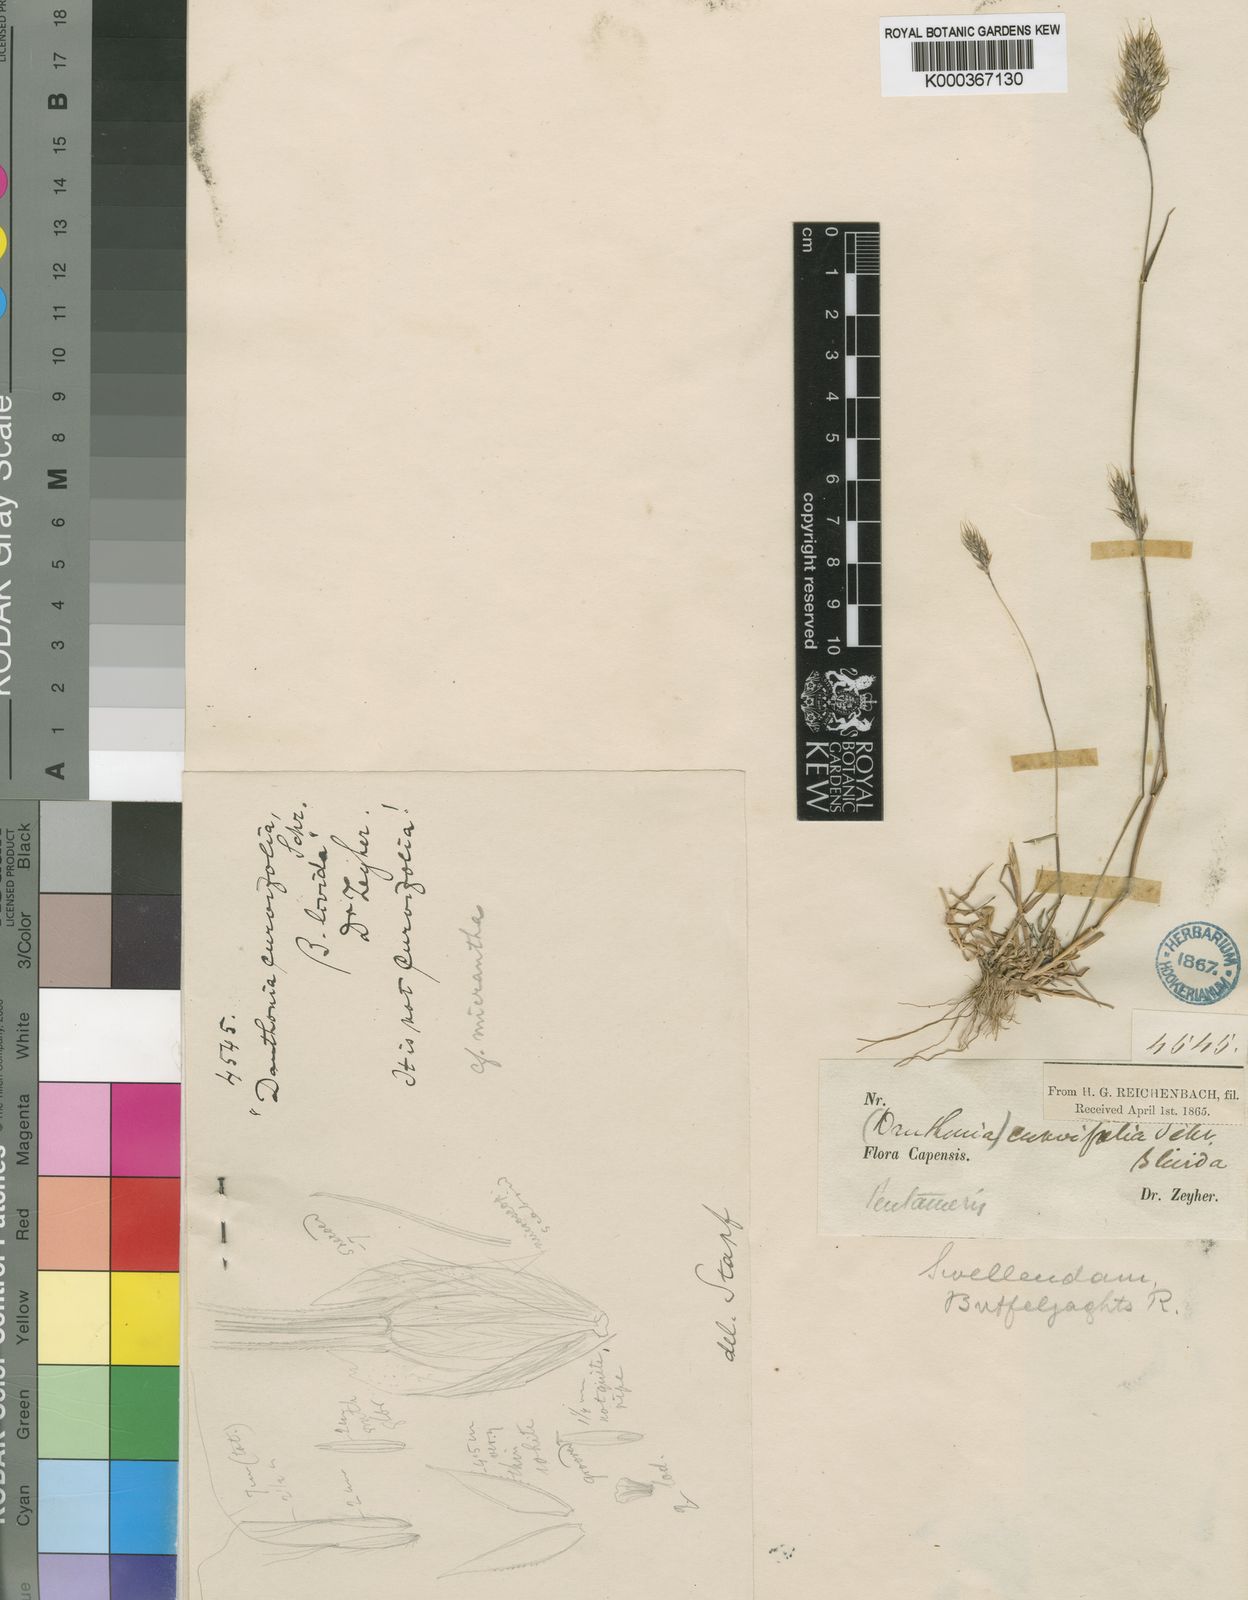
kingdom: Plantae
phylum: Tracheophyta
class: Liliopsida
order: Poales
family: Poaceae
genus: Pentameris
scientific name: Pentameris triseta
